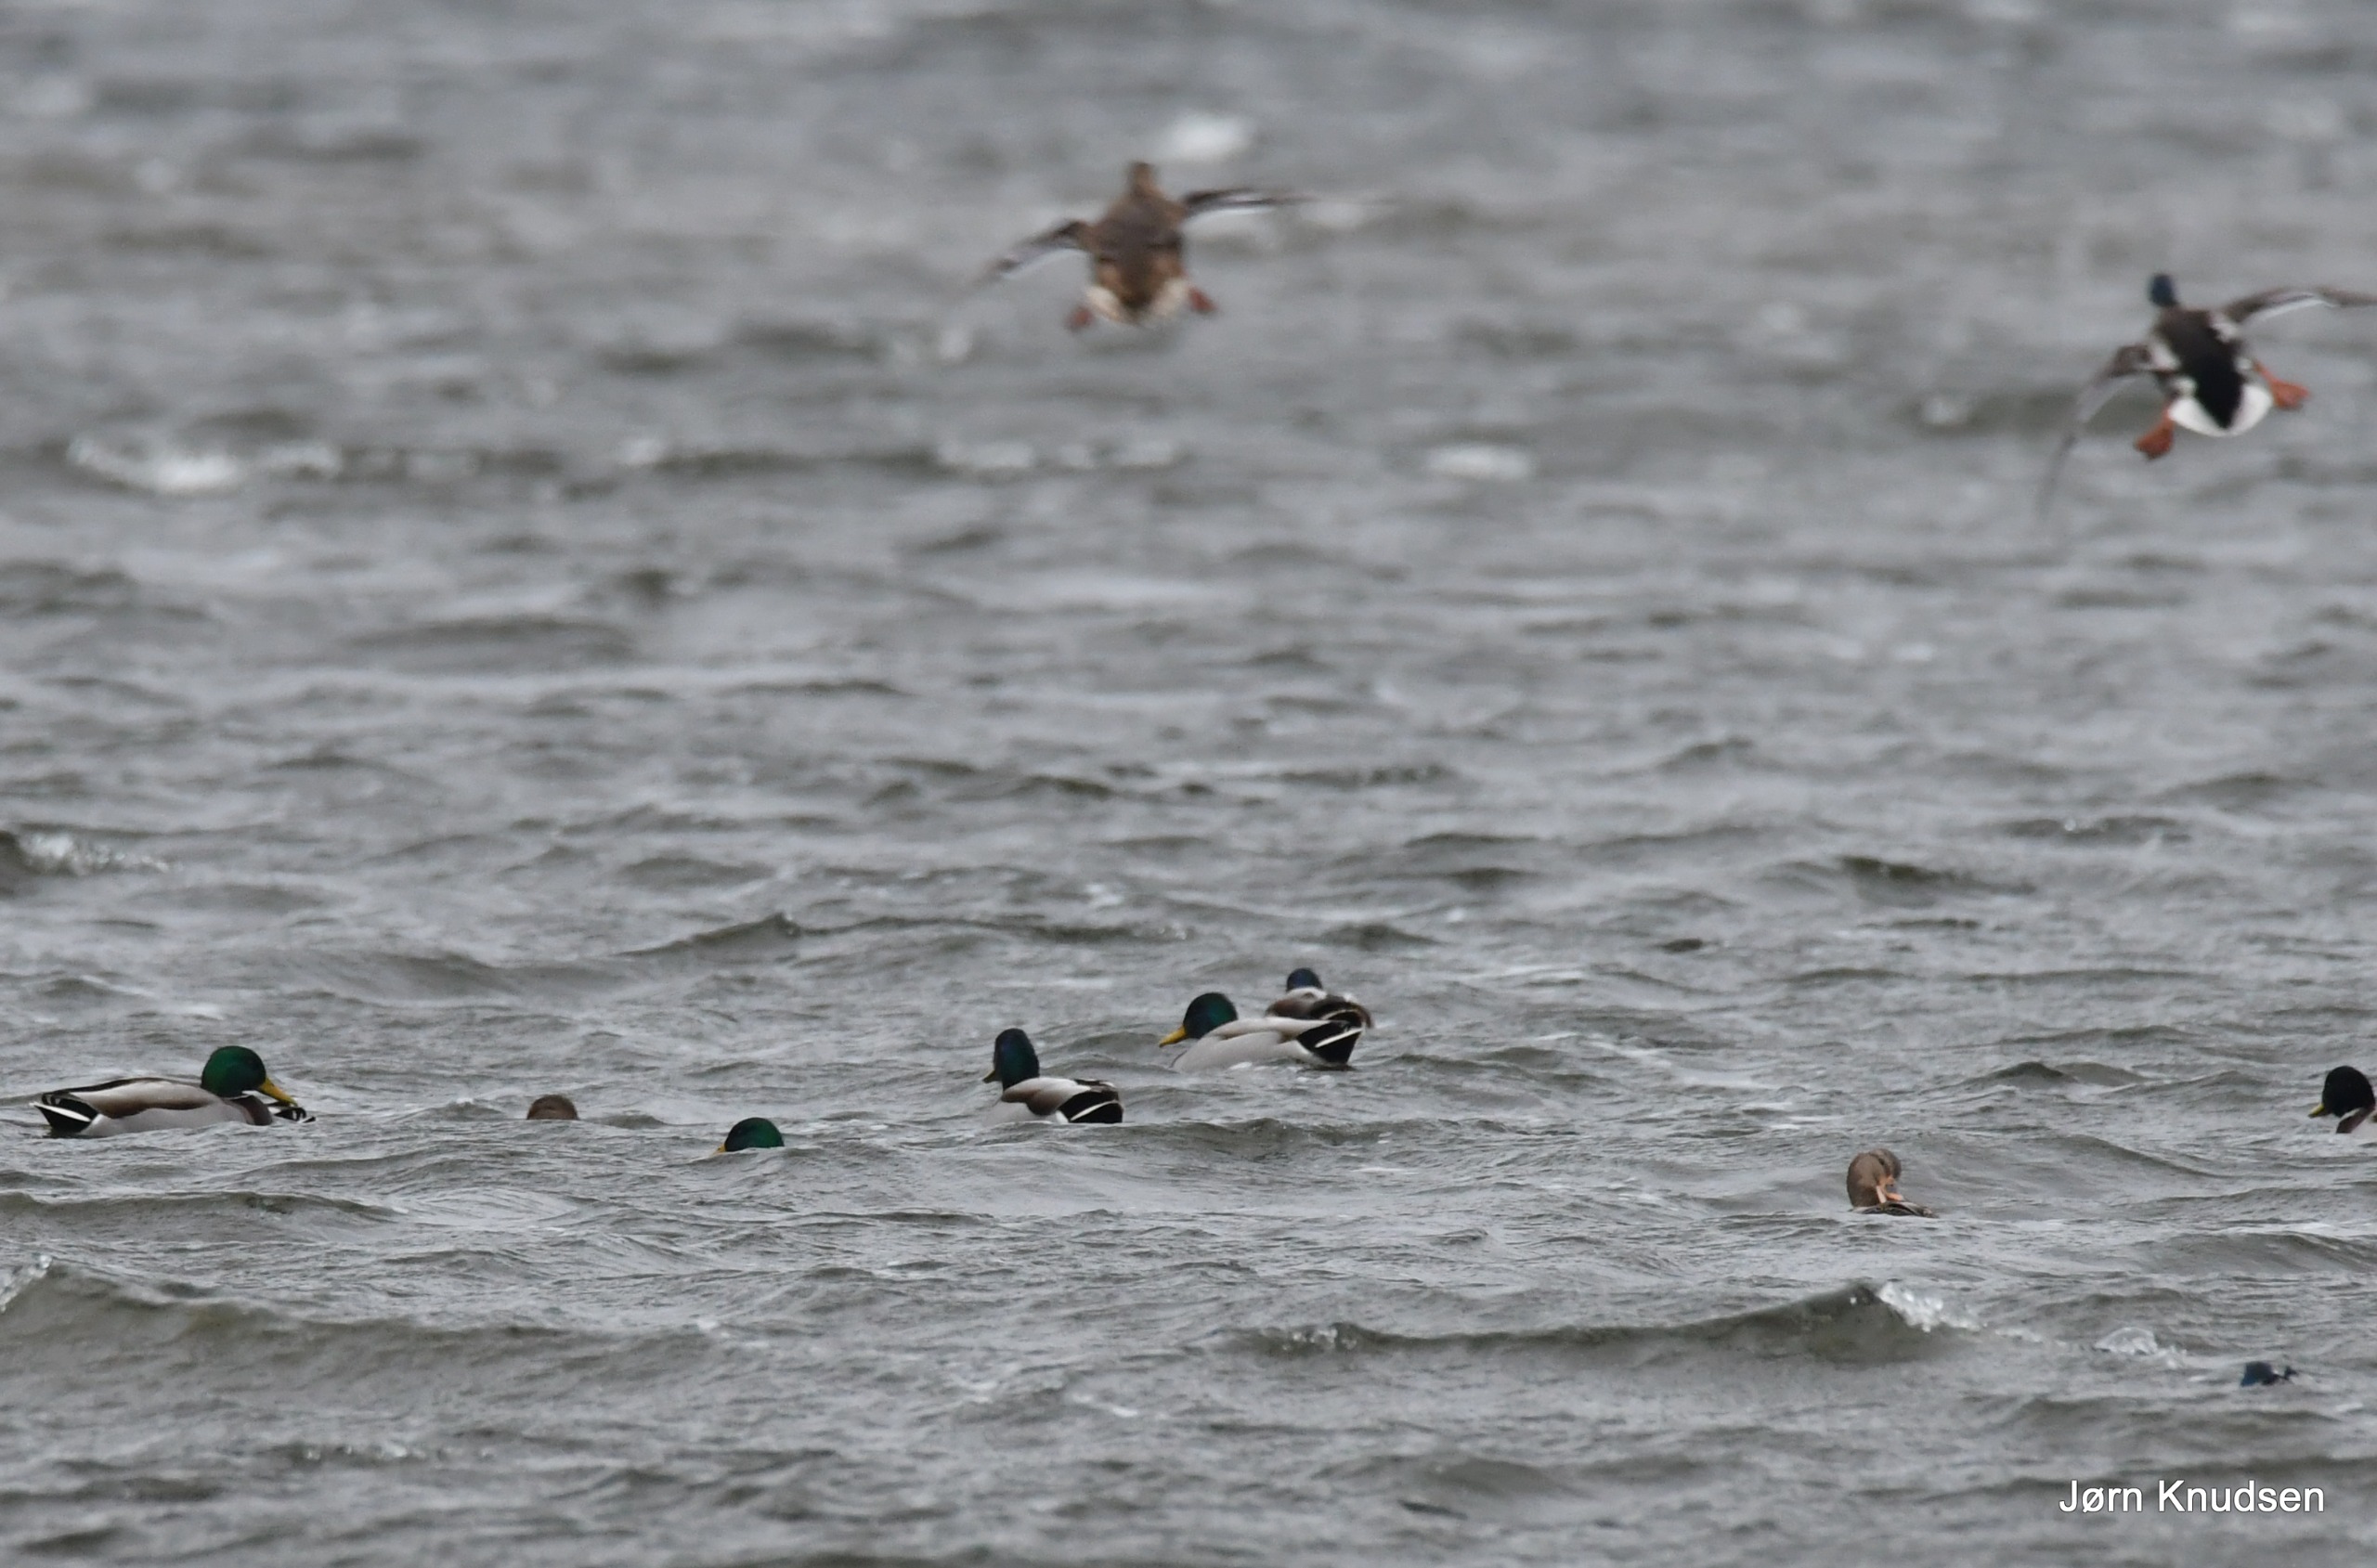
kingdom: Animalia
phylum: Chordata
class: Aves
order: Anseriformes
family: Anatidae
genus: Anas
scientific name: Anas platyrhynchos
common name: Gråand
